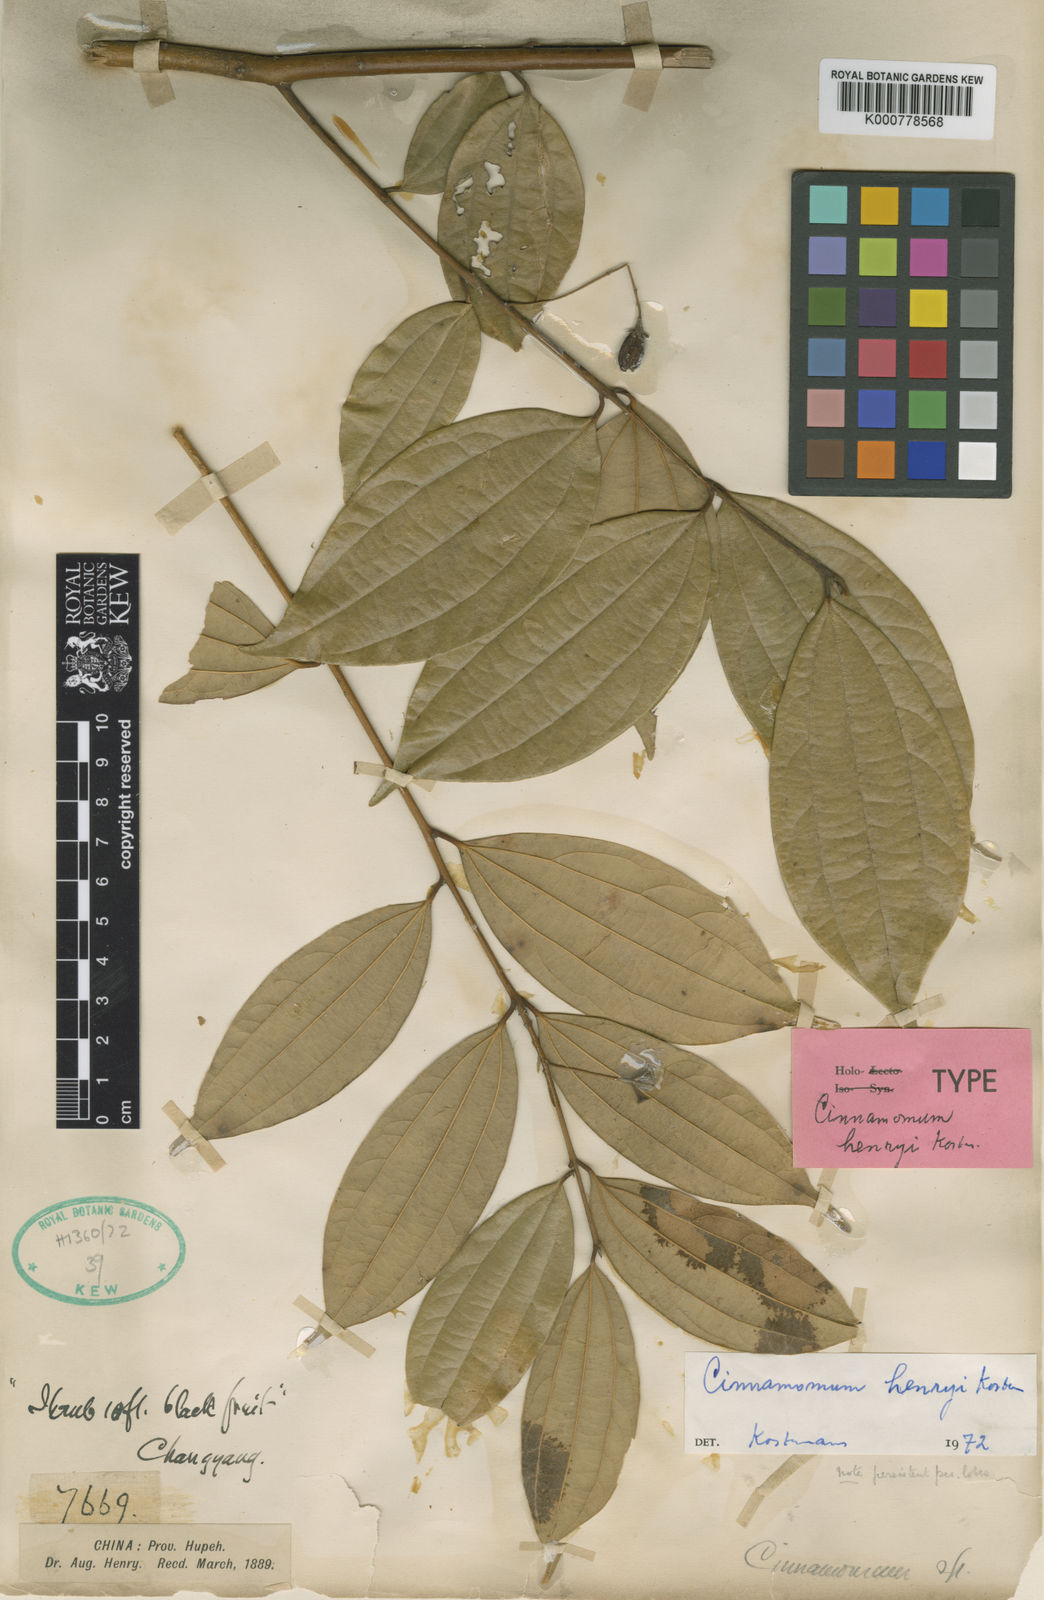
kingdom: Plantae
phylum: Tracheophyta
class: Magnoliopsida
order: Laurales
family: Lauraceae
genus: Cinnamomum
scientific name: Cinnamomum
